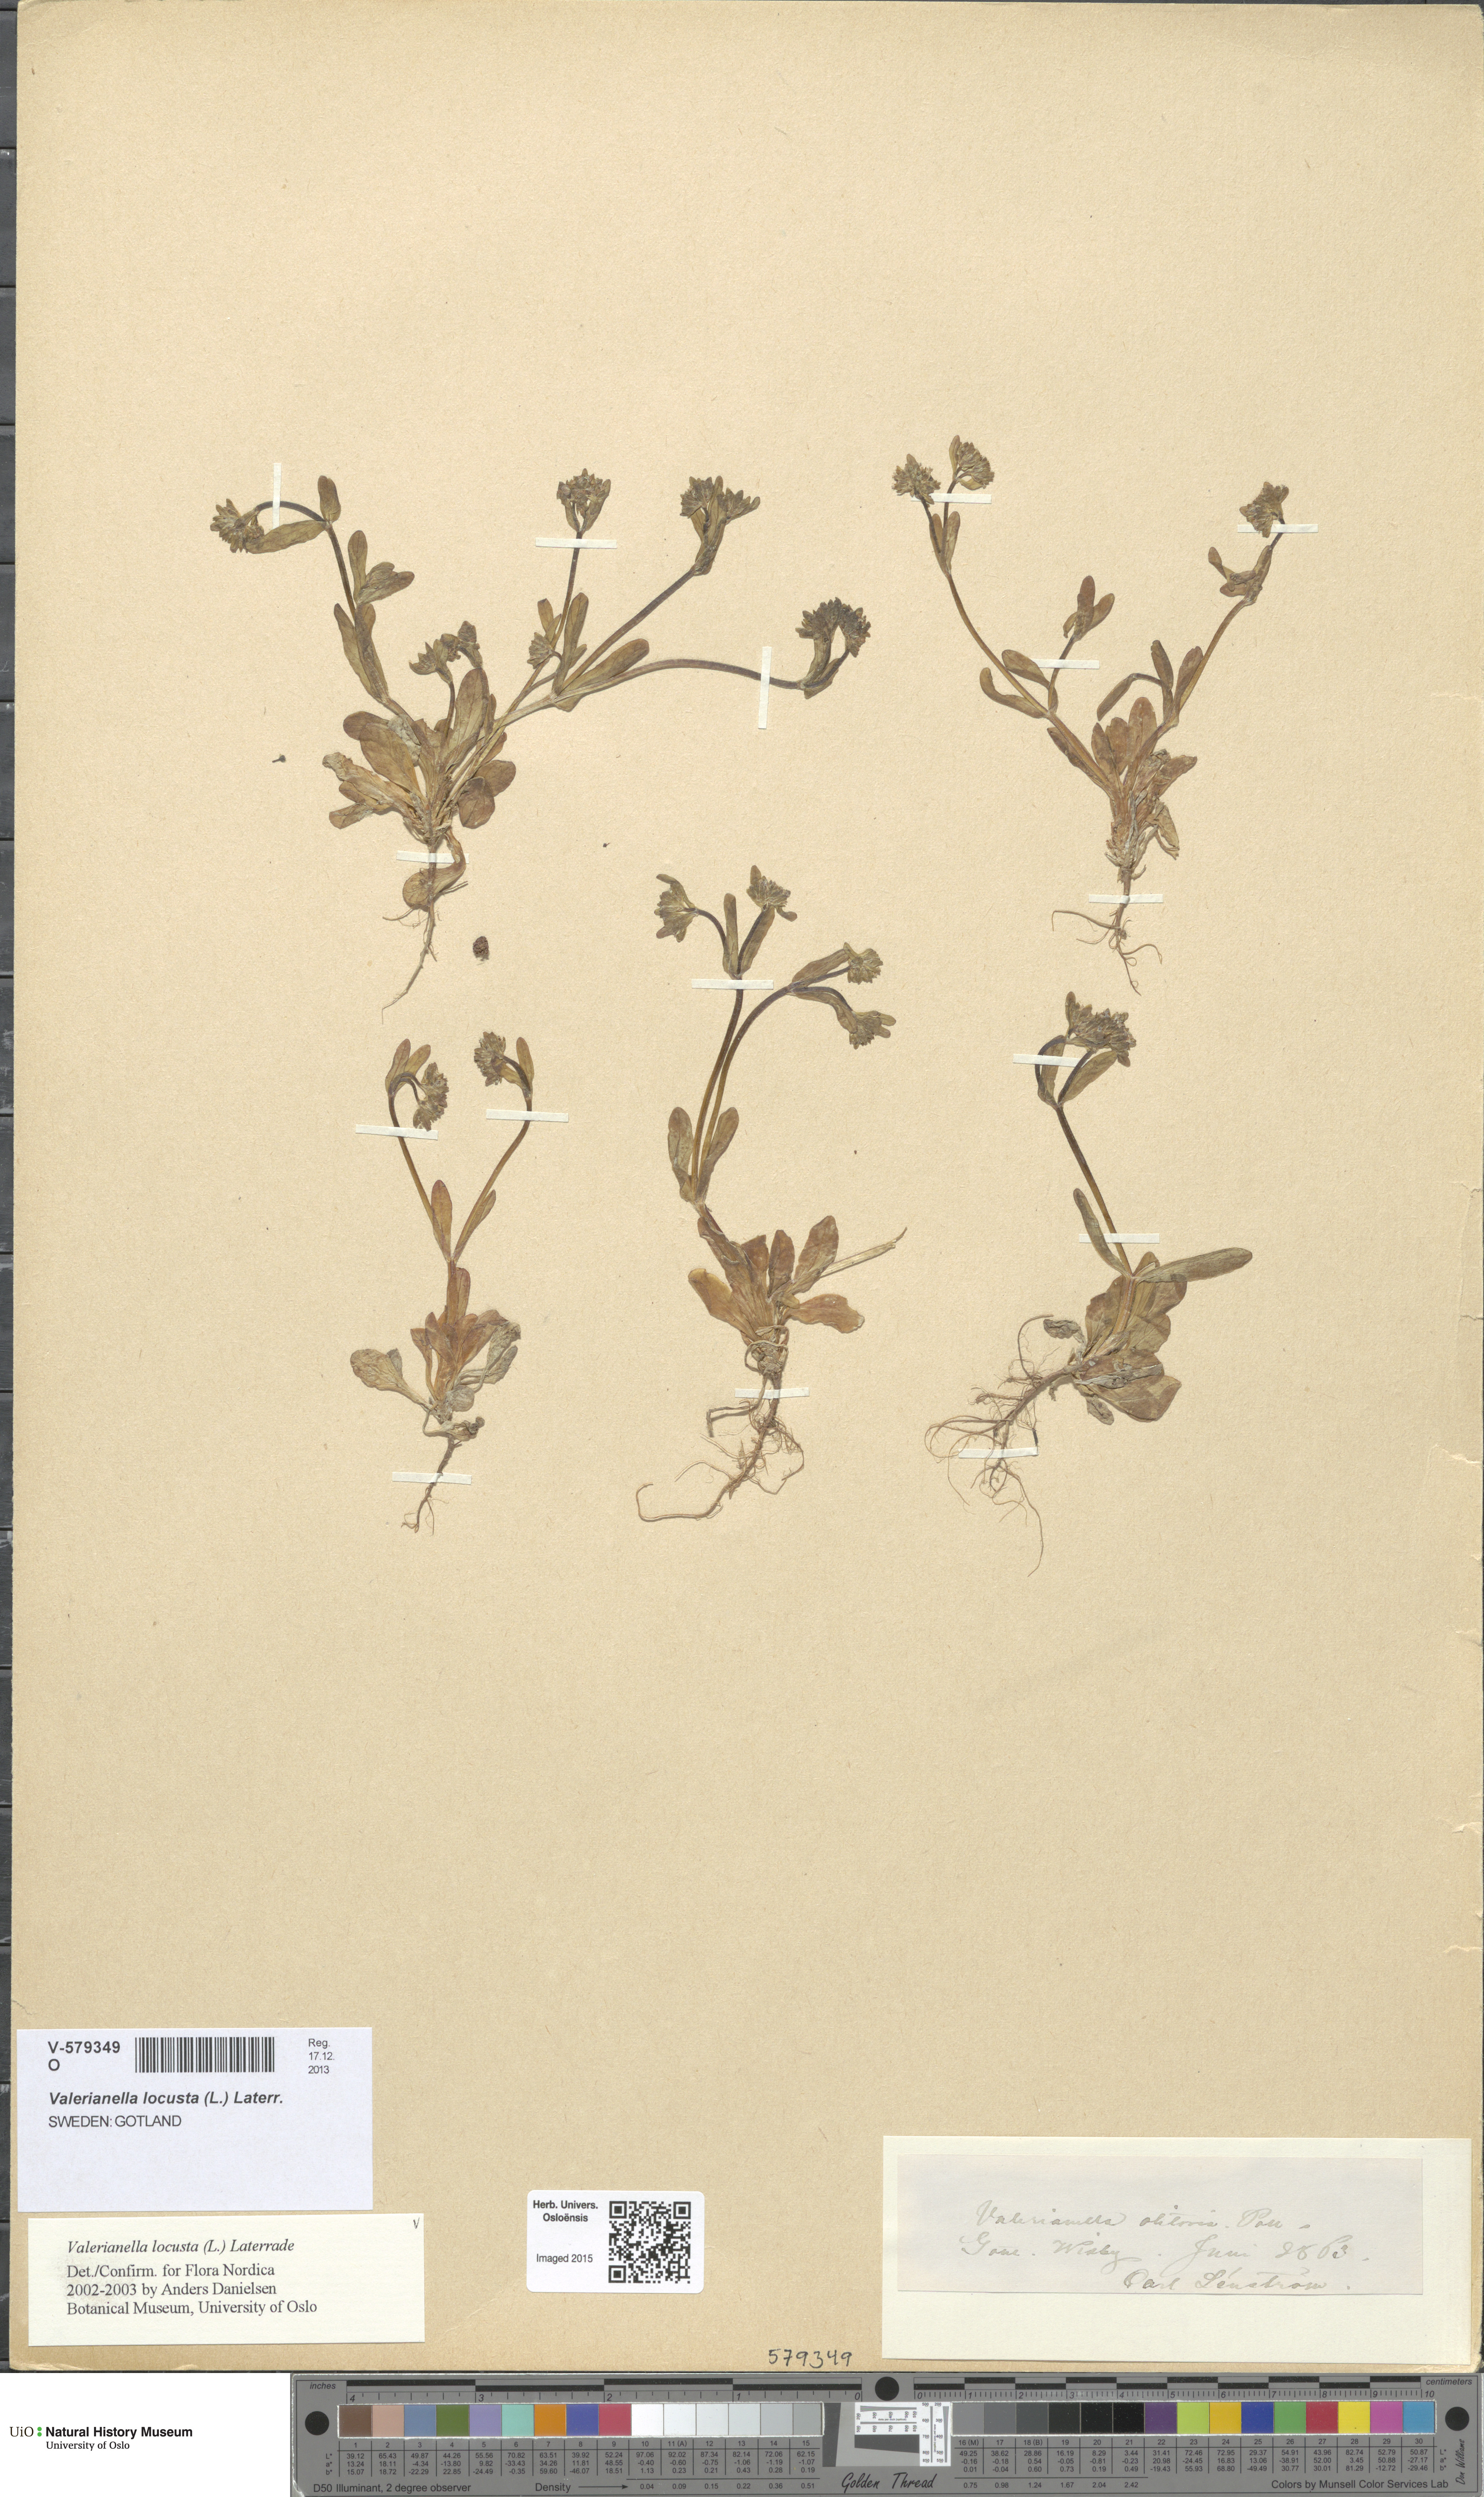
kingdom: Plantae
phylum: Tracheophyta
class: Magnoliopsida
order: Dipsacales
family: Caprifoliaceae
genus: Valerianella
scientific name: Valerianella locusta
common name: Common cornsalad
